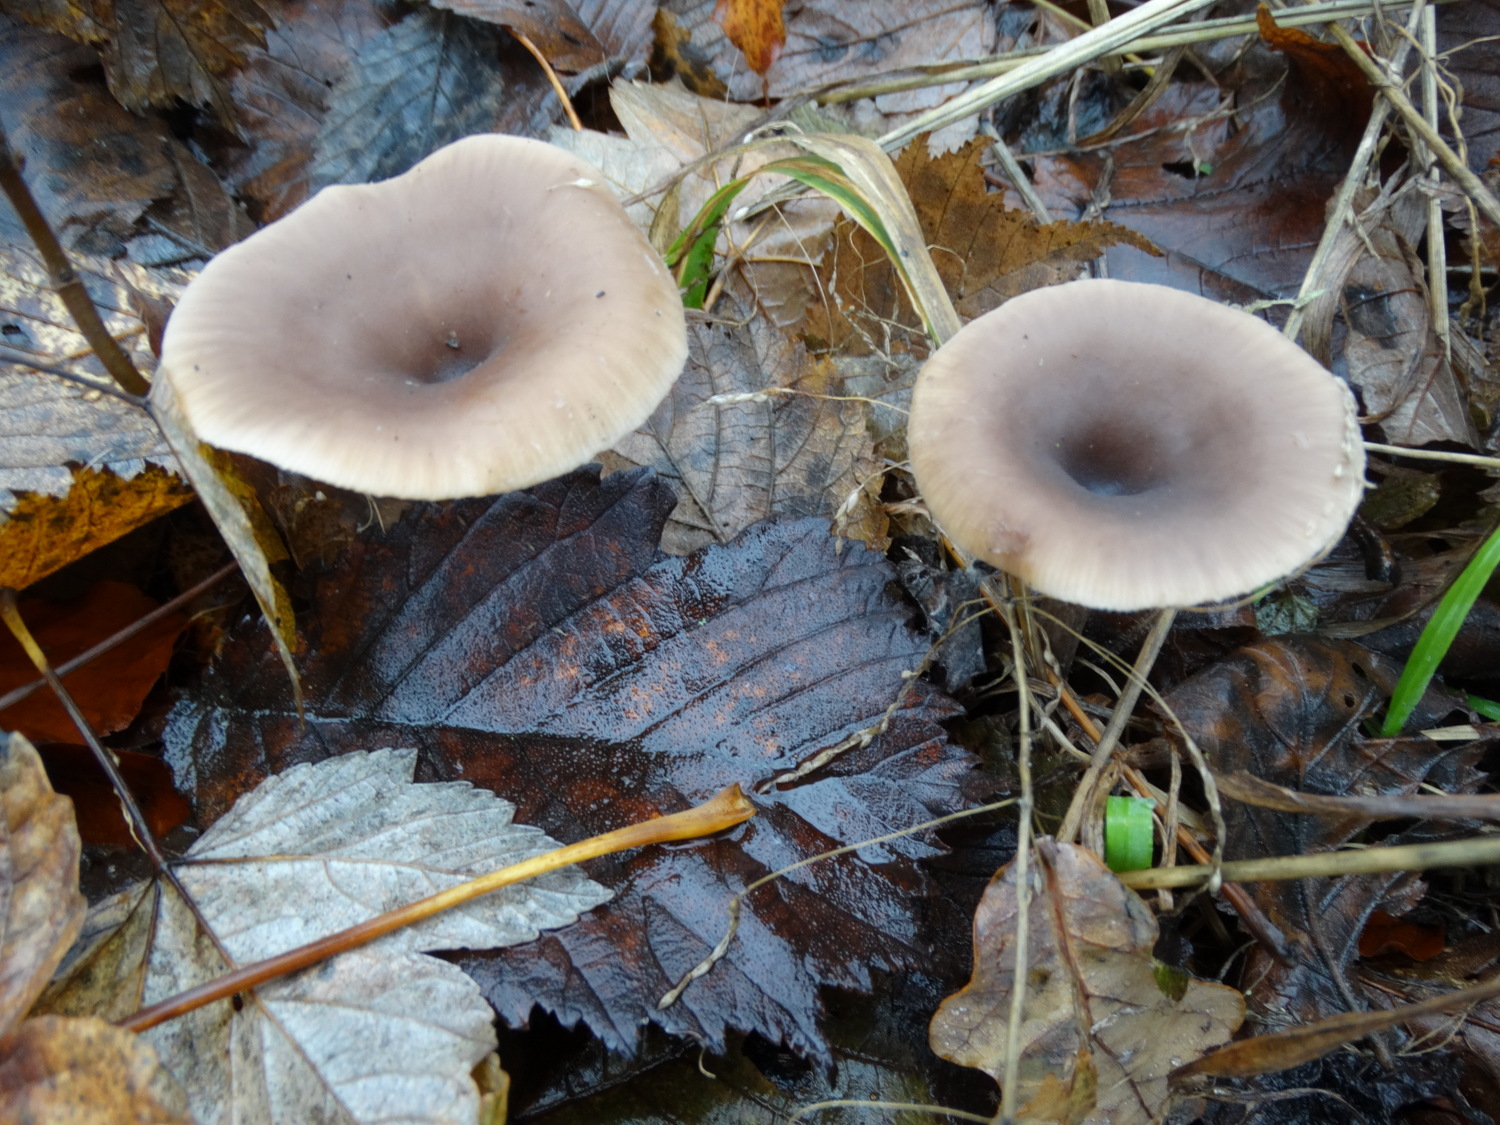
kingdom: Fungi
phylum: Basidiomycota
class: Agaricomycetes
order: Agaricales
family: Pseudoclitocybaceae
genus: Pseudoclitocybe
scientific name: Pseudoclitocybe cyathiformis
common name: almindelig bægertragthat
